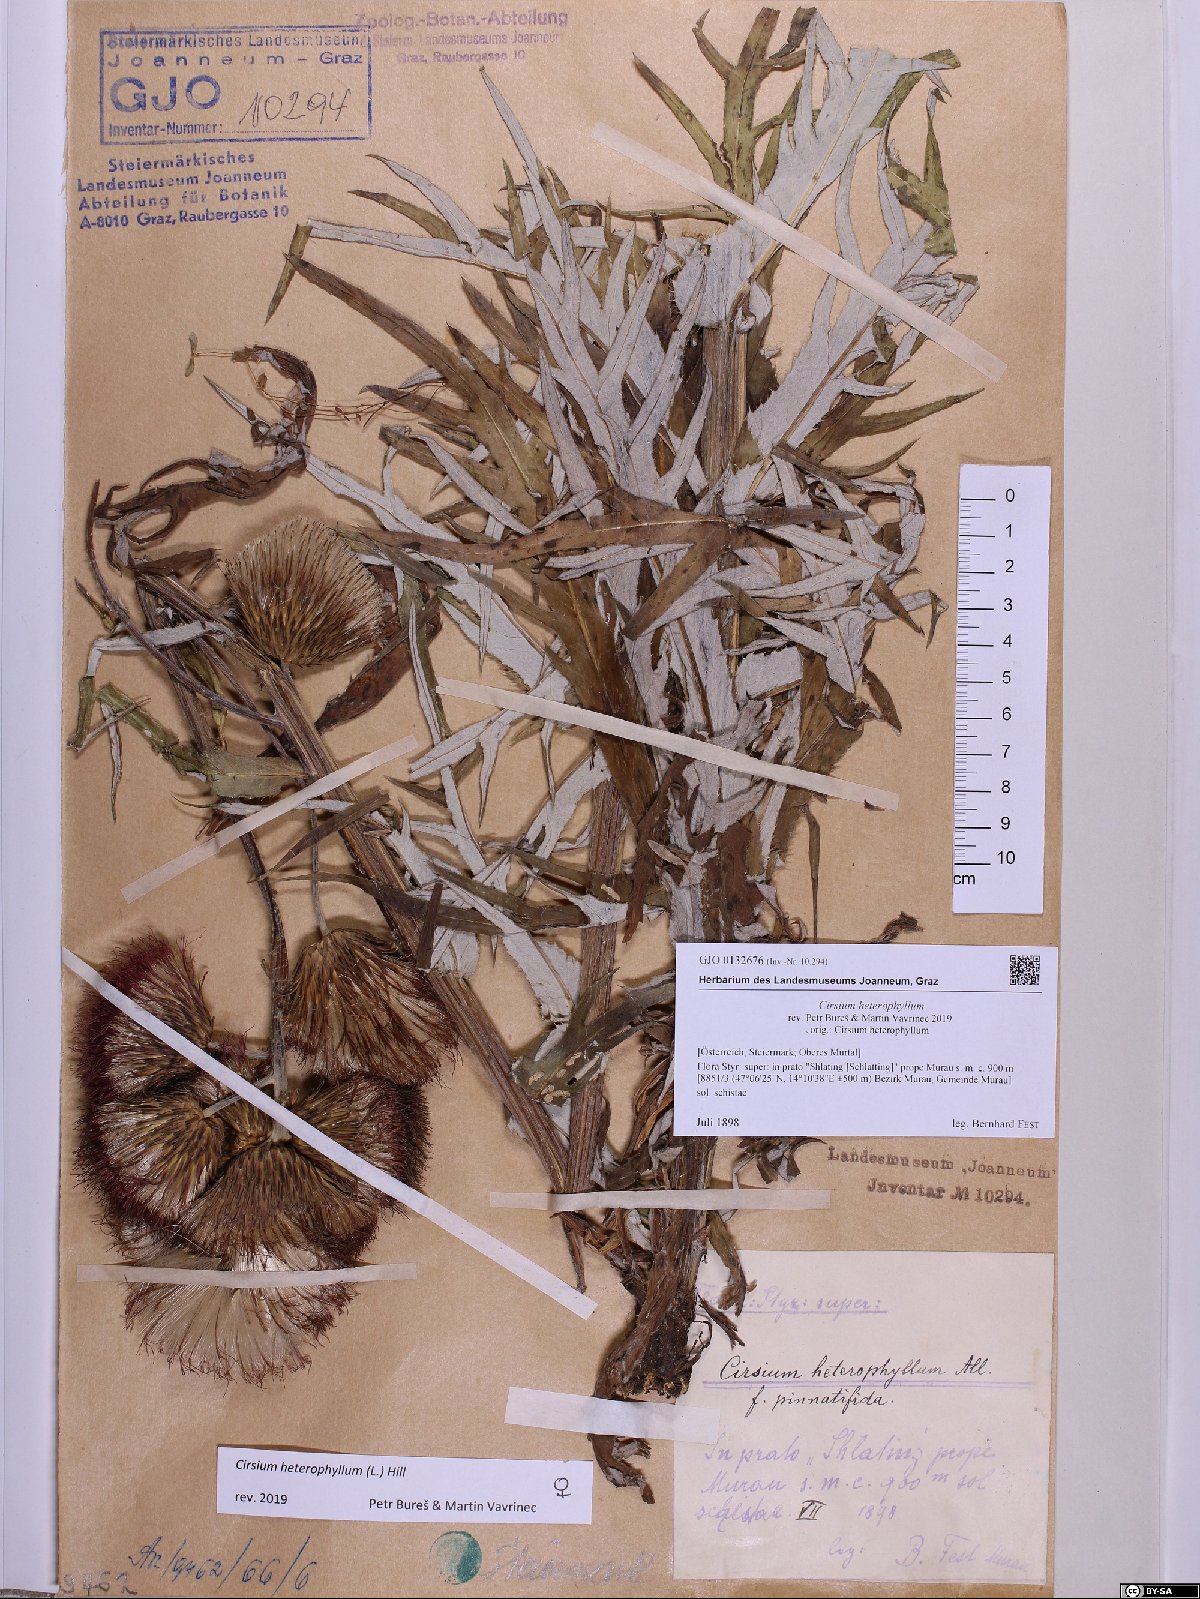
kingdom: Plantae
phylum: Tracheophyta
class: Magnoliopsida
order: Asterales
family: Asteraceae
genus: Cirsium
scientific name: Cirsium heterophyllum
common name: Melancholy thistle
